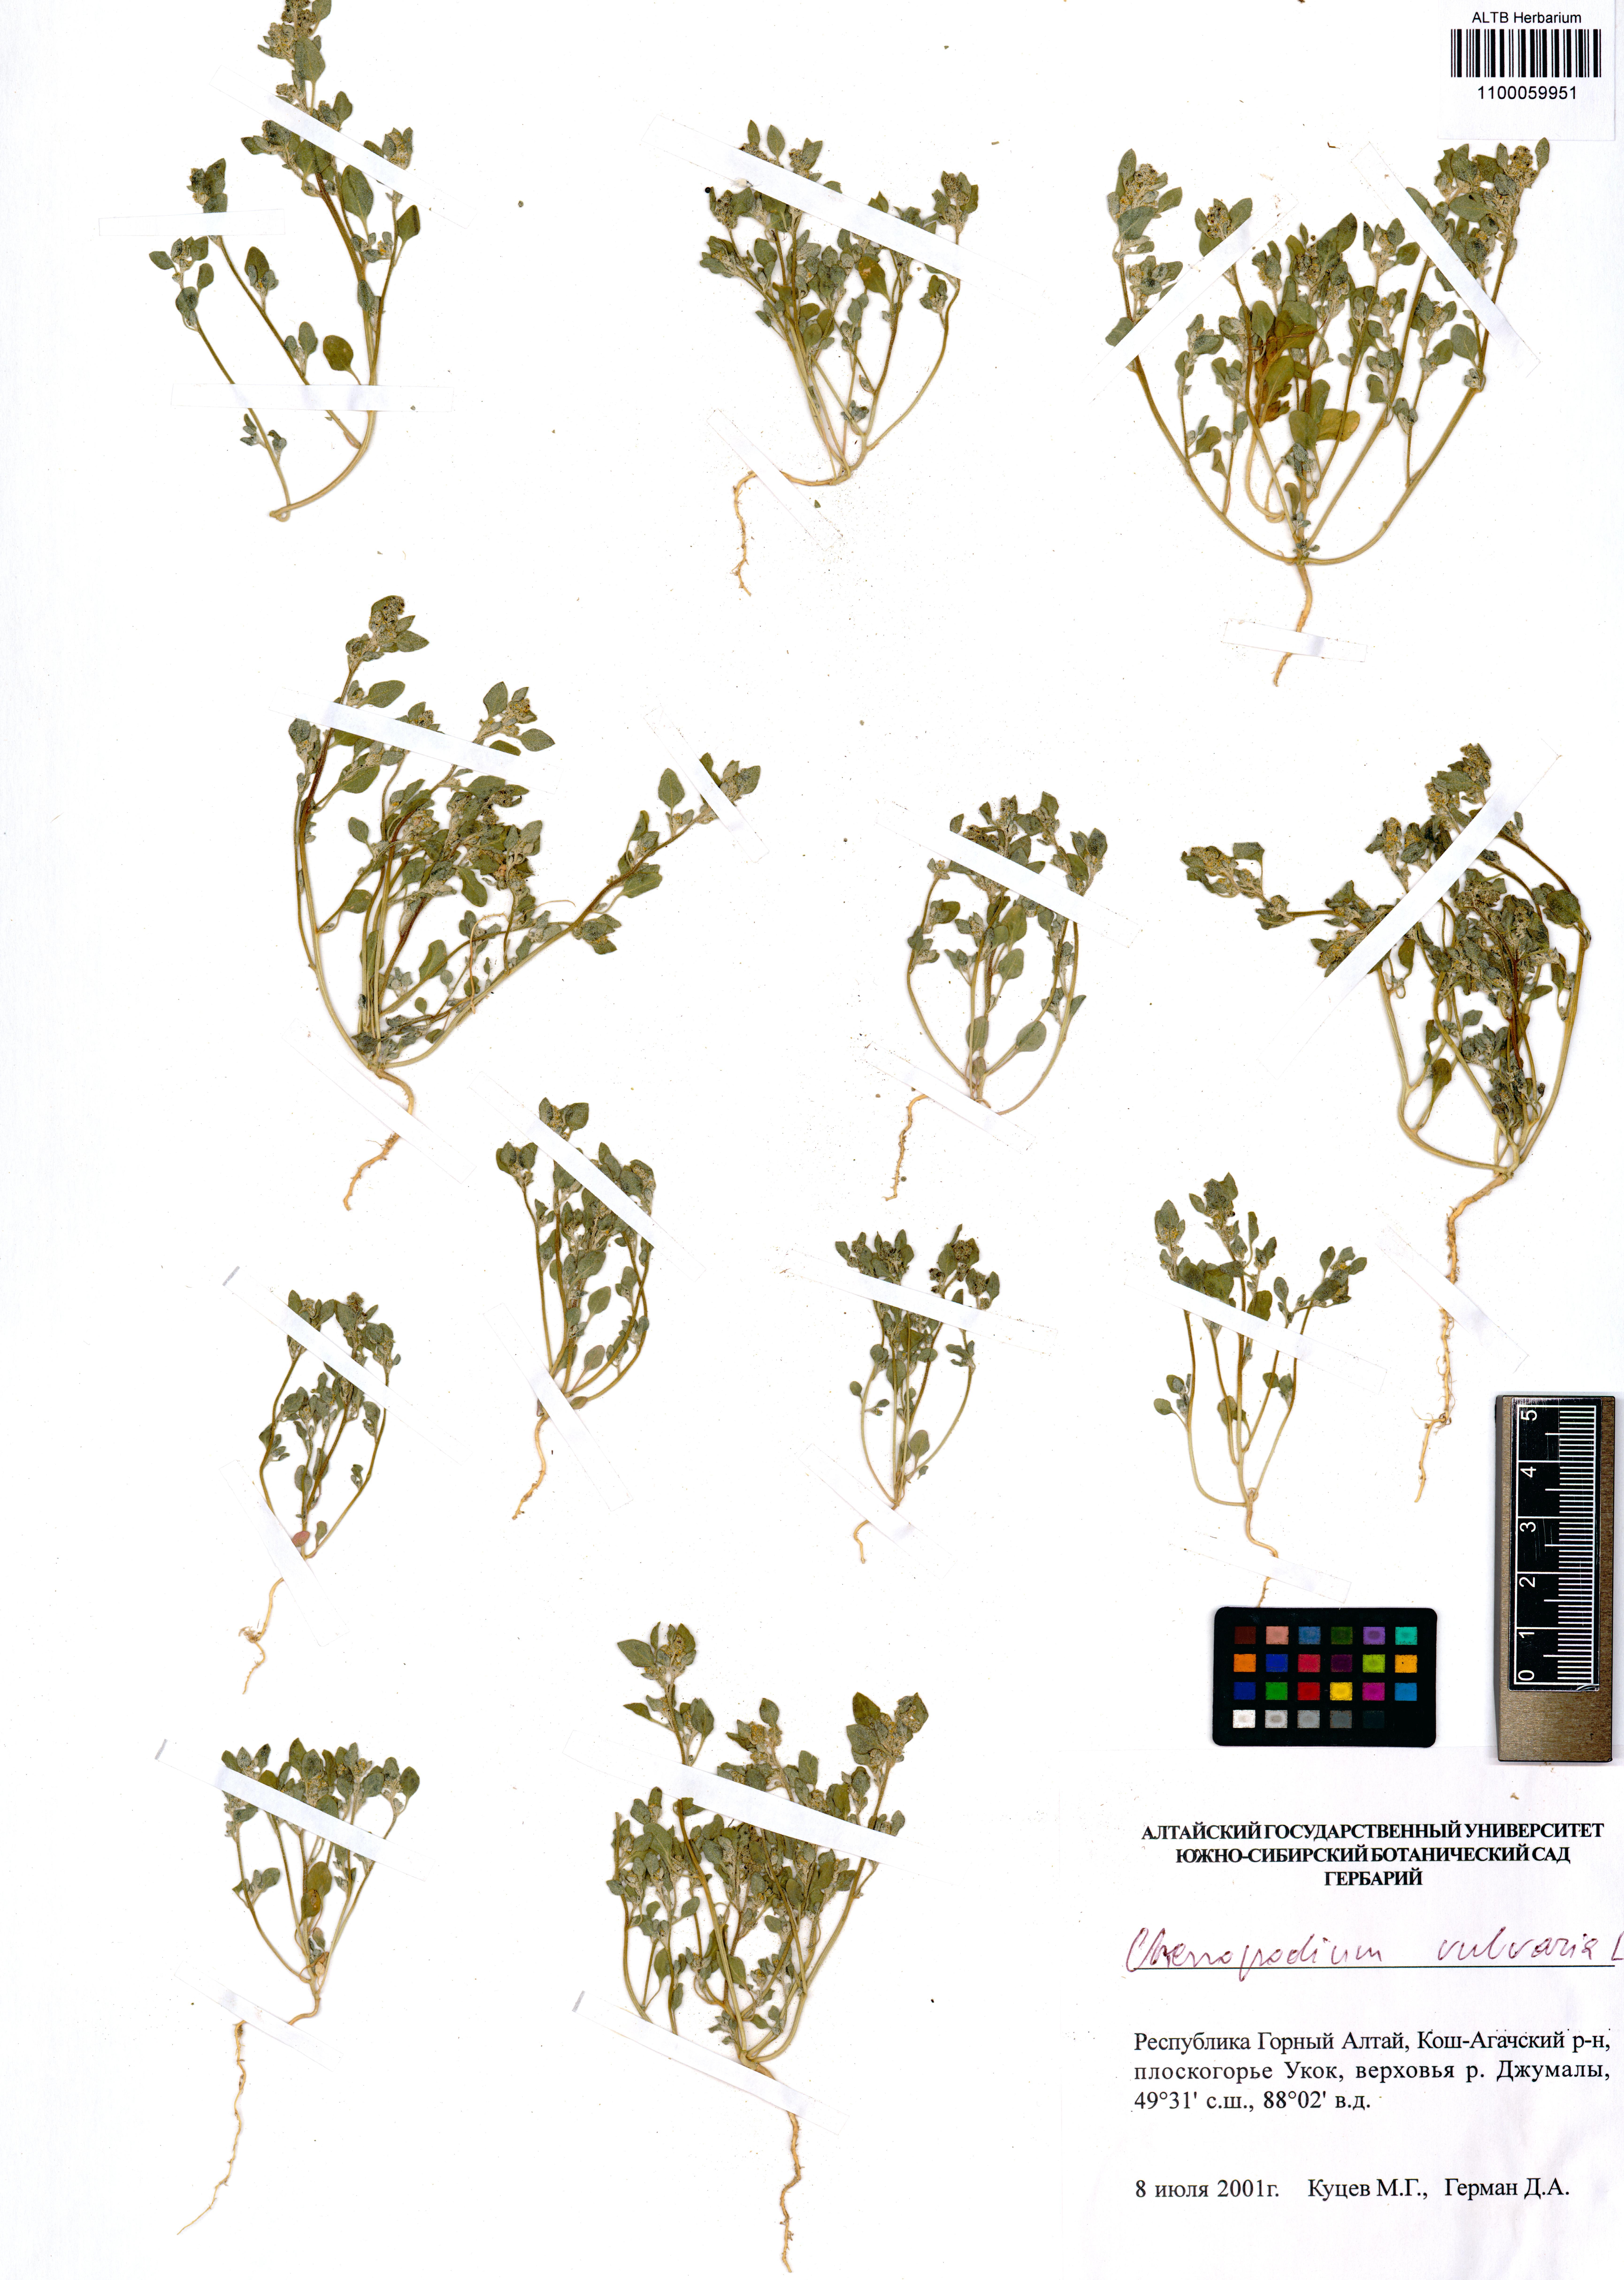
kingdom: Plantae
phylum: Tracheophyta
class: Magnoliopsida
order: Caryophyllales
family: Amaranthaceae
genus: Chenopodium
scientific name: Chenopodium vulvaria
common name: Stinking goosefoot
